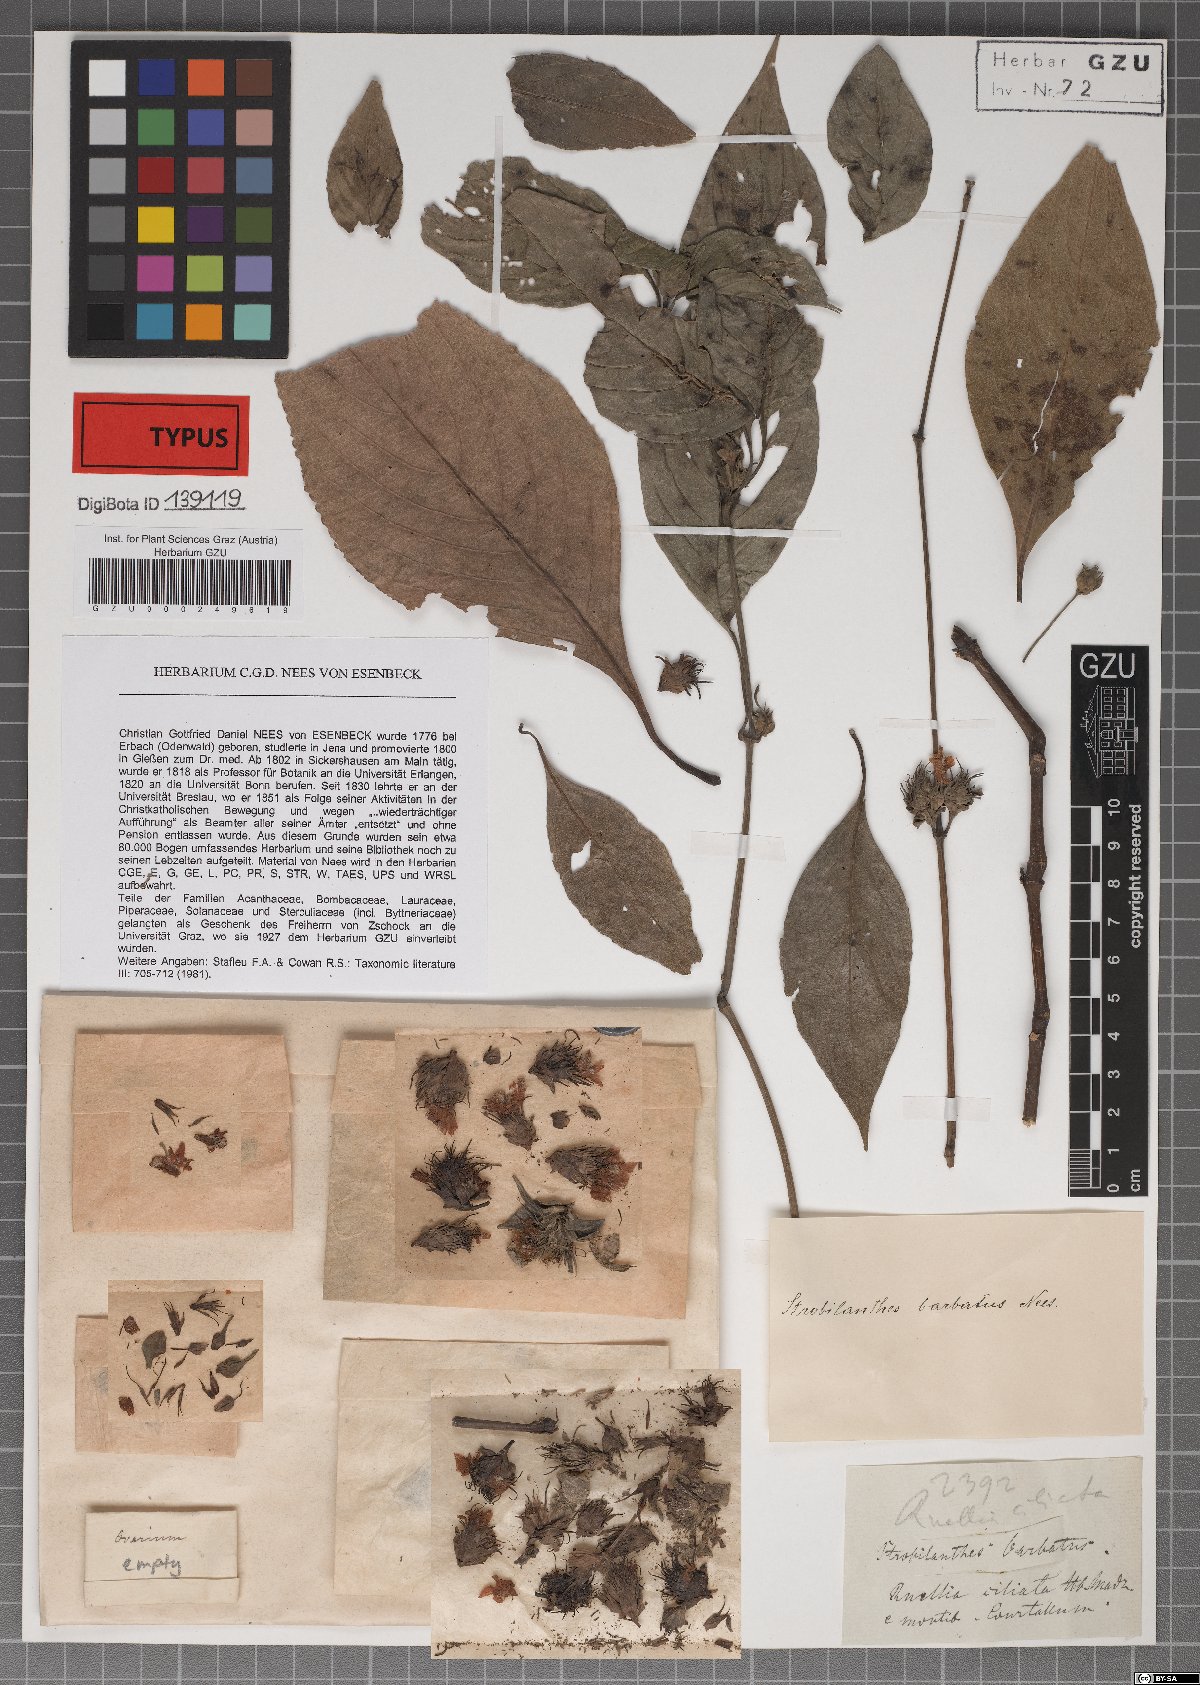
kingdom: Plantae
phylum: Tracheophyta
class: Magnoliopsida
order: Lamiales
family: Acanthaceae
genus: Strobilanthes
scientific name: Strobilanthes barbata
